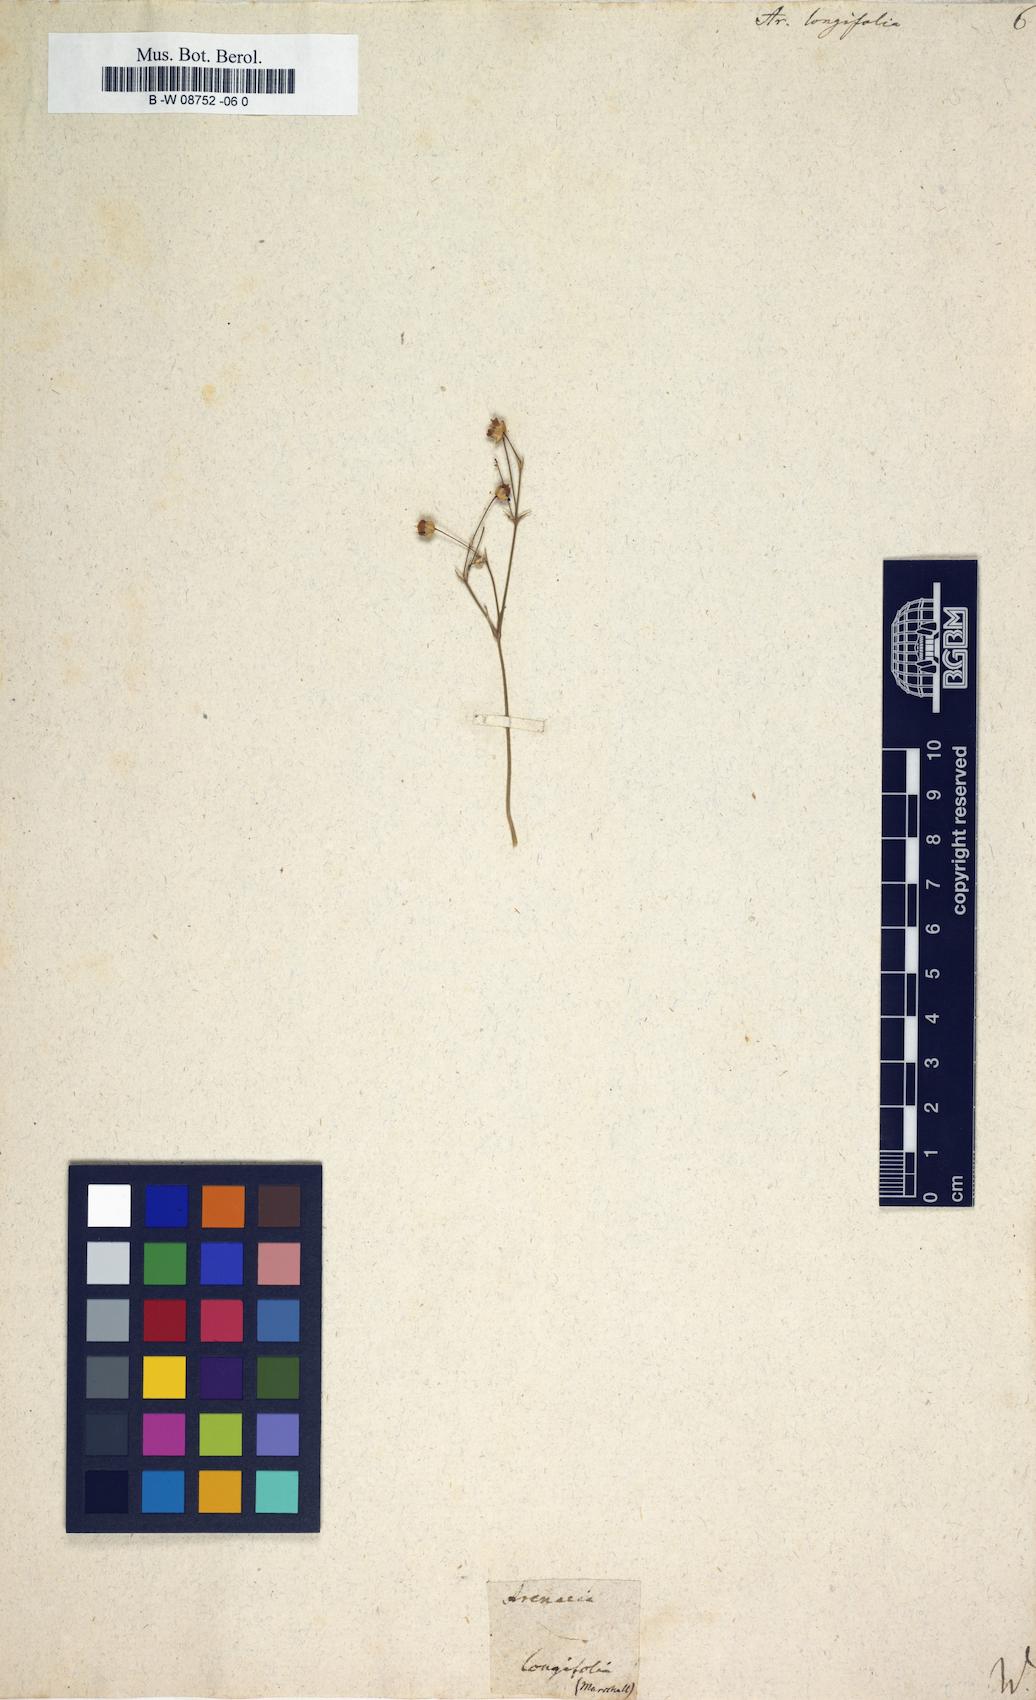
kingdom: Plantae
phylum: Tracheophyta
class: Magnoliopsida
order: Caryophyllales
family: Caryophyllaceae
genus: Eremogone
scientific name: Eremogone
